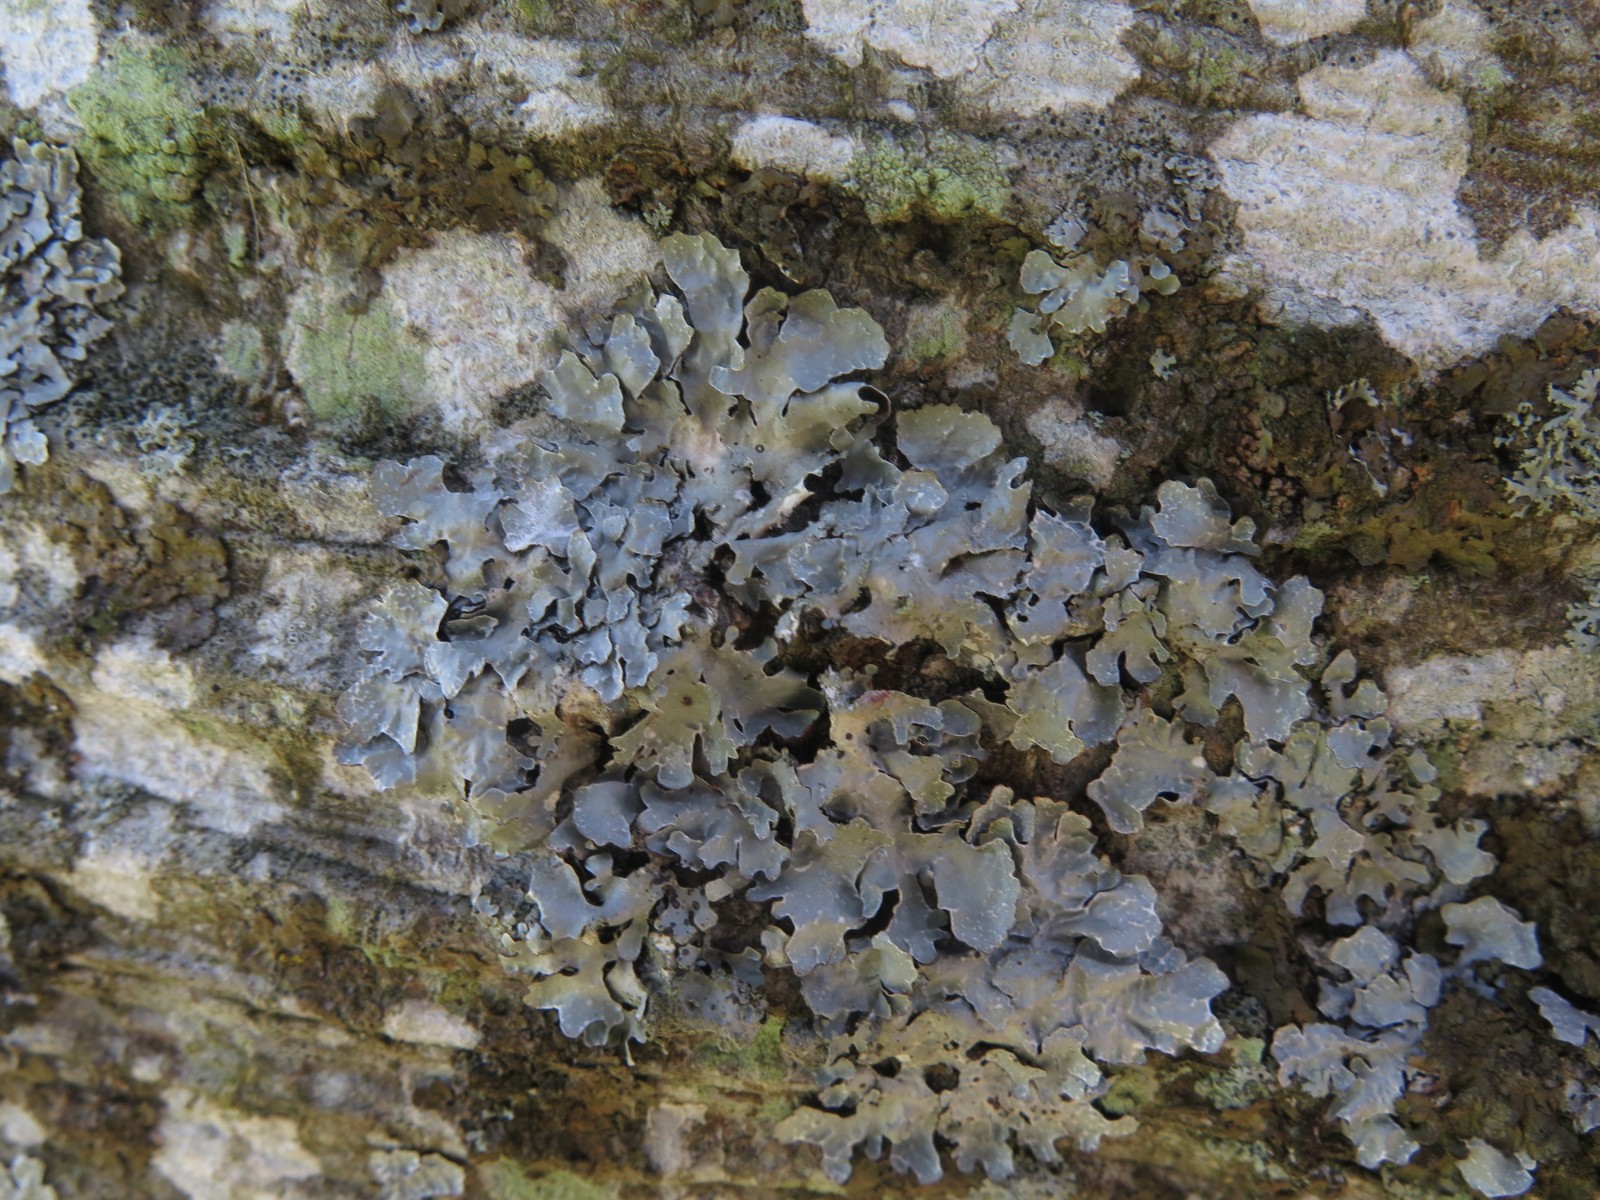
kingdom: Fungi
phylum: Ascomycota
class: Lecanoromycetes
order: Lecanorales
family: Parmeliaceae
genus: Parmelia
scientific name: Parmelia sulcata
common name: rynket skållav
